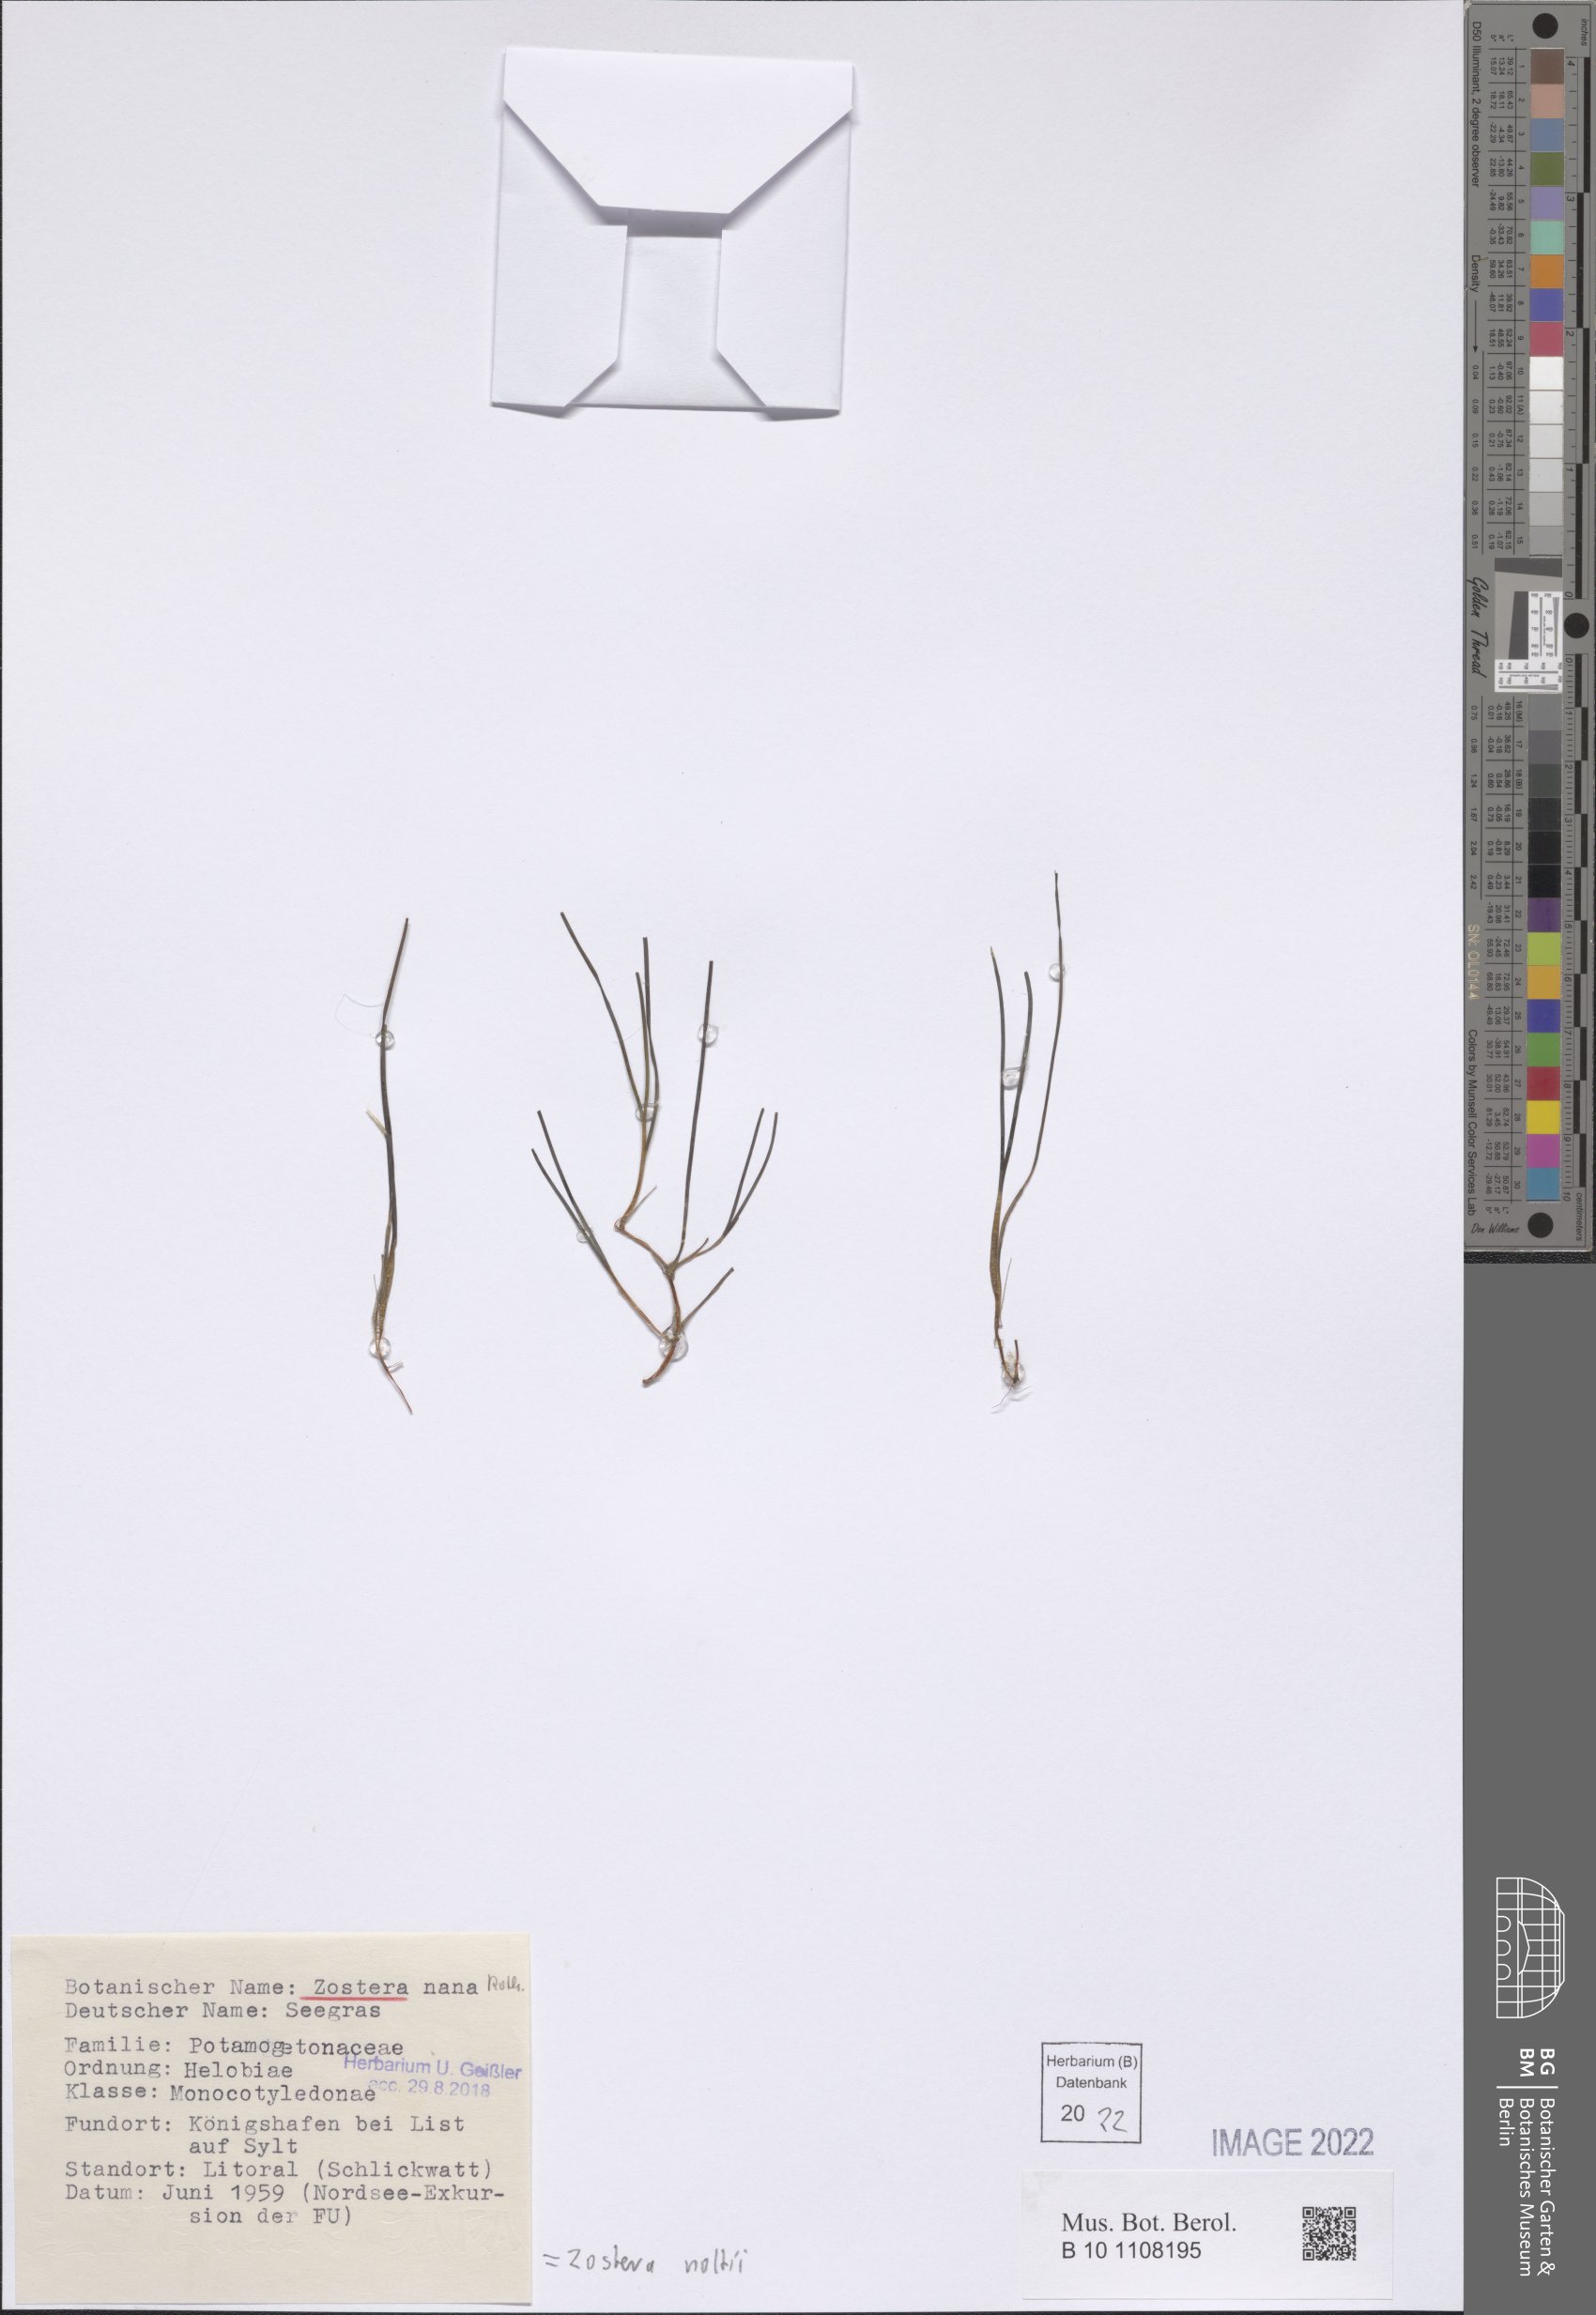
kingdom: Plantae
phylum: Tracheophyta
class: Liliopsida
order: Alismatales
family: Zosteraceae
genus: Zostera
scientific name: Zostera noltii
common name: Dwarf eelgrass
